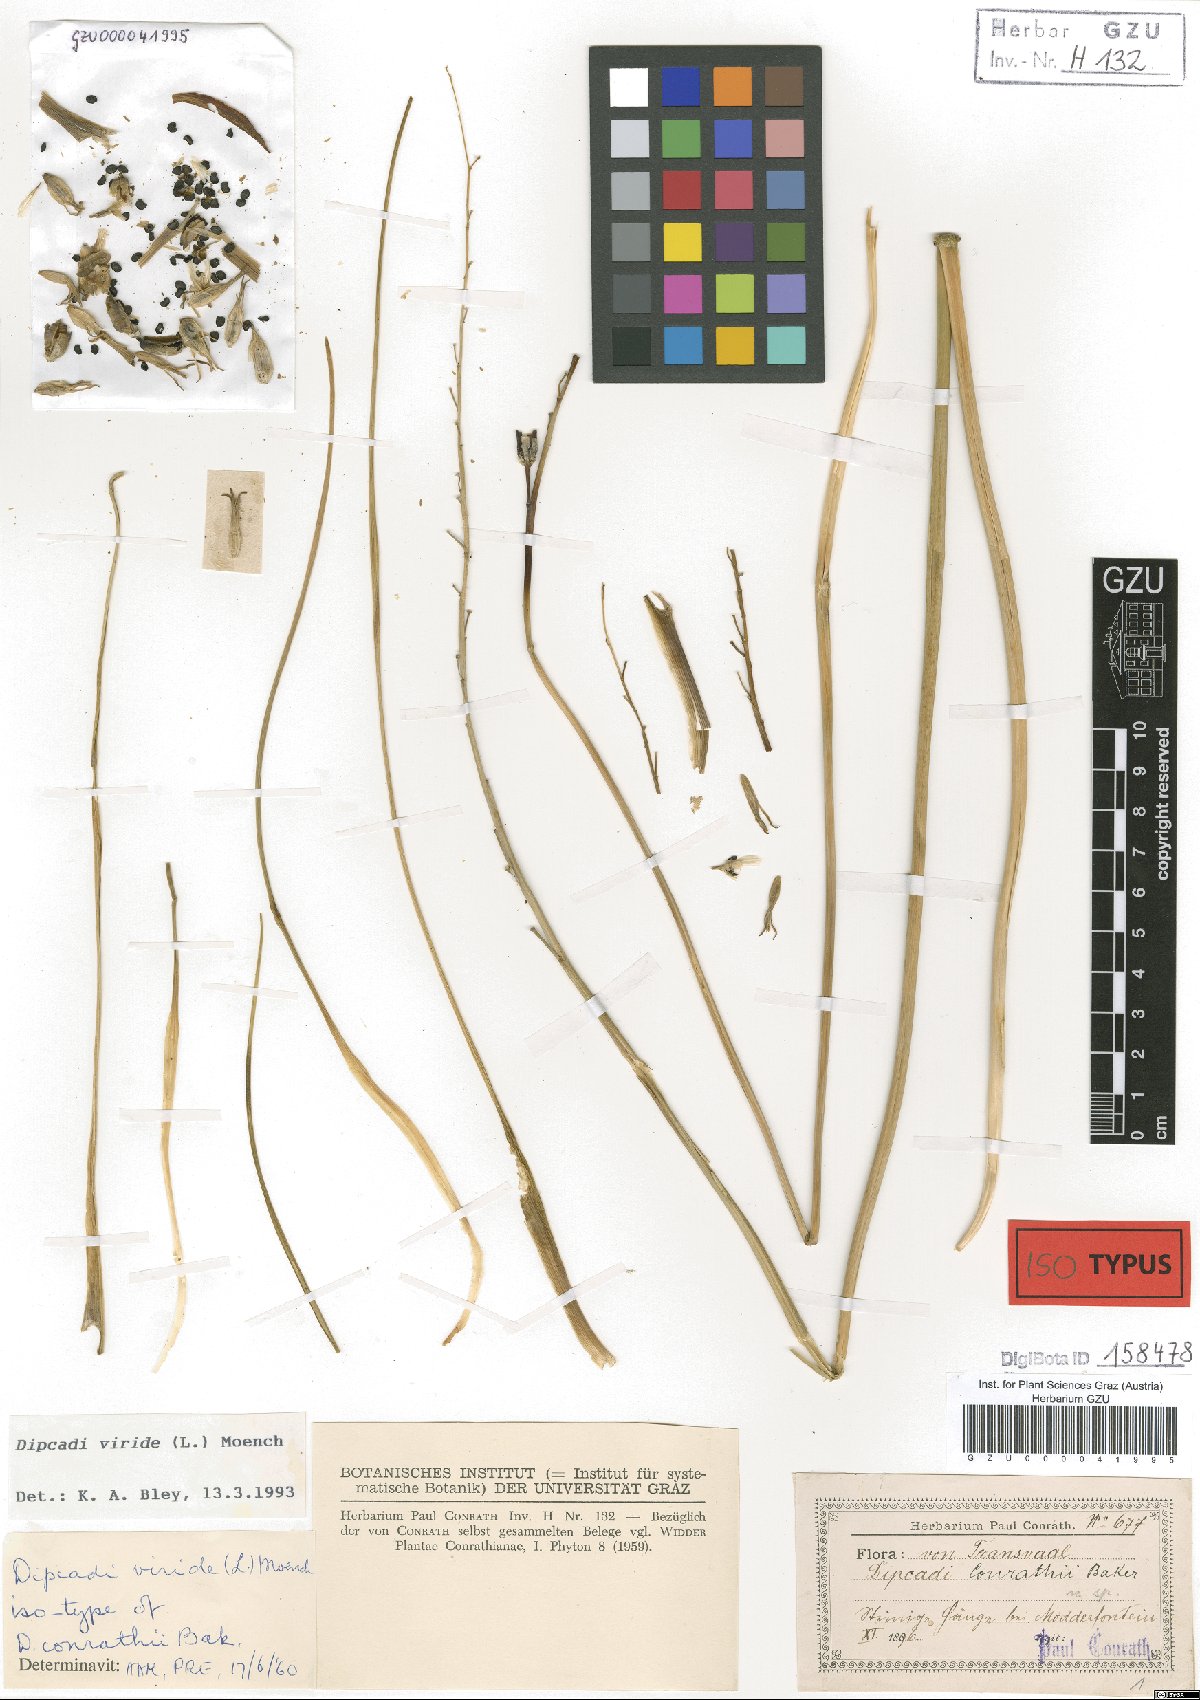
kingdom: Plantae
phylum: Tracheophyta
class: Liliopsida
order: Asparagales
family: Asparagaceae
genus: Dipcadi
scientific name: Dipcadi viride
